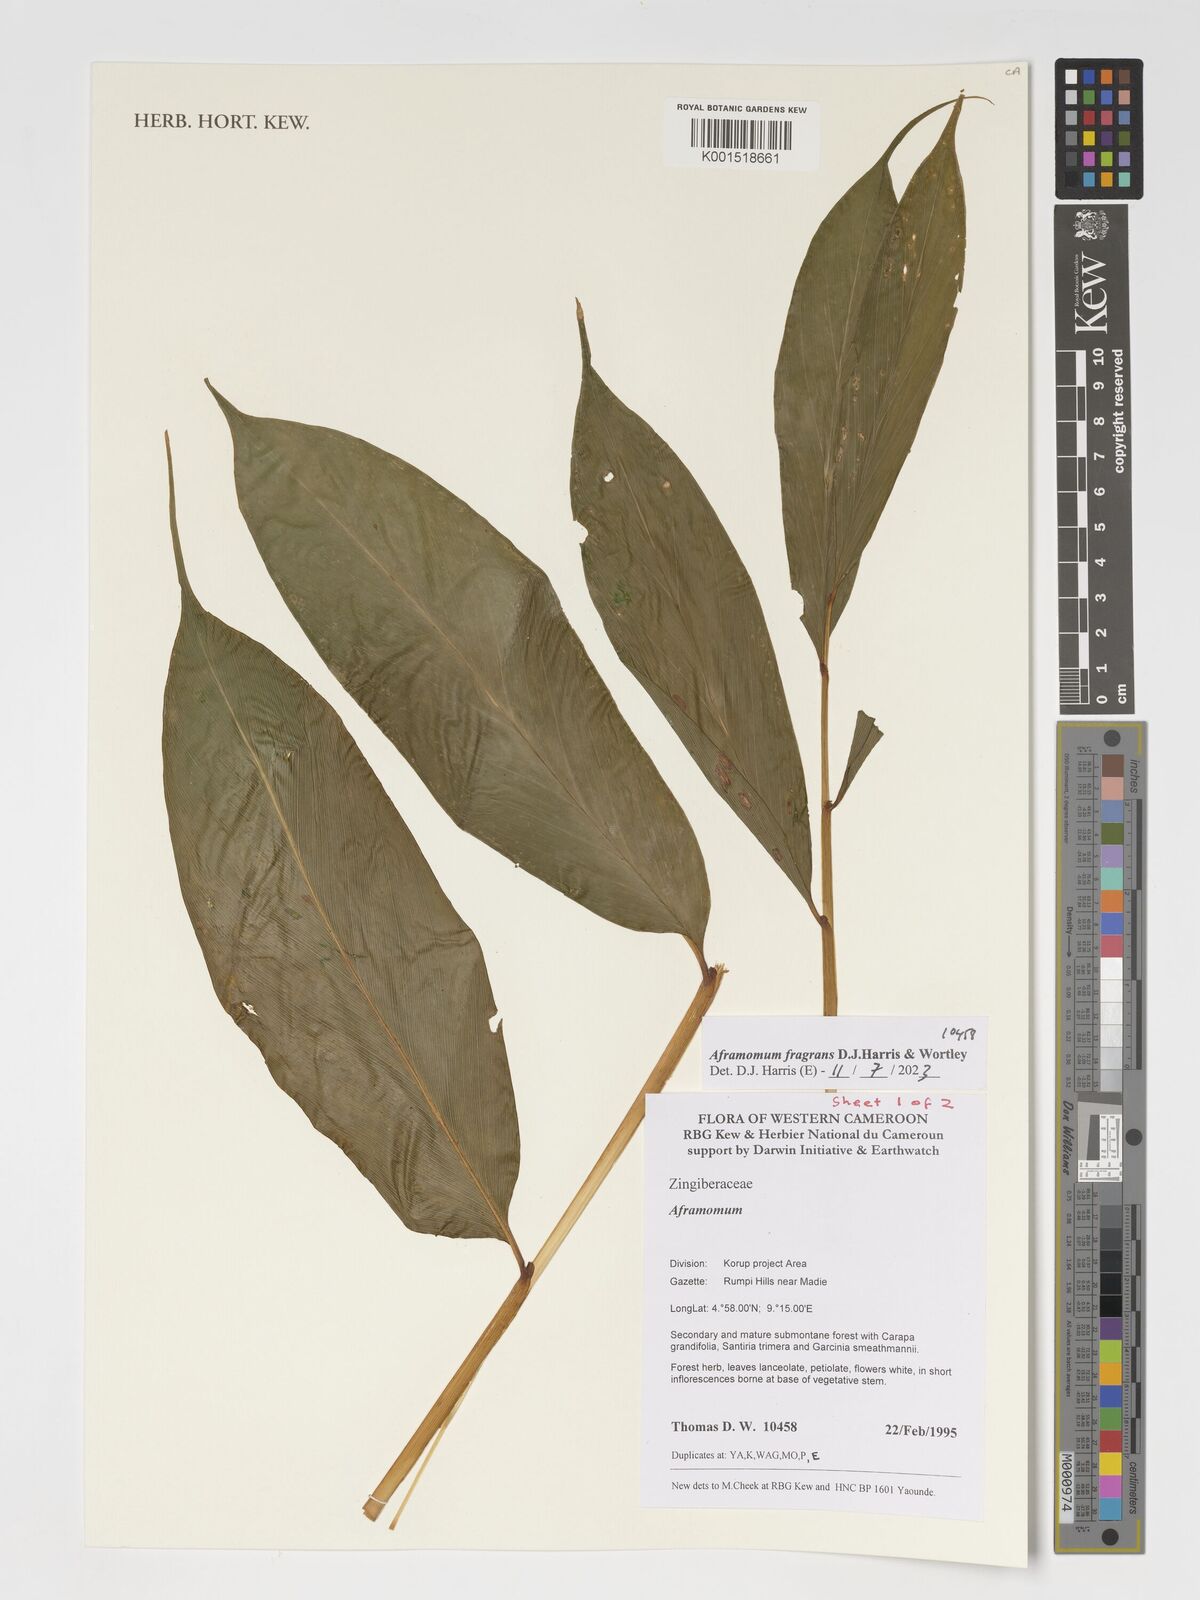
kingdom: Plantae
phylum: Tracheophyta
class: Liliopsida
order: Zingiberales
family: Zingiberaceae
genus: Aframomum
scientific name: Aframomum fragrans
